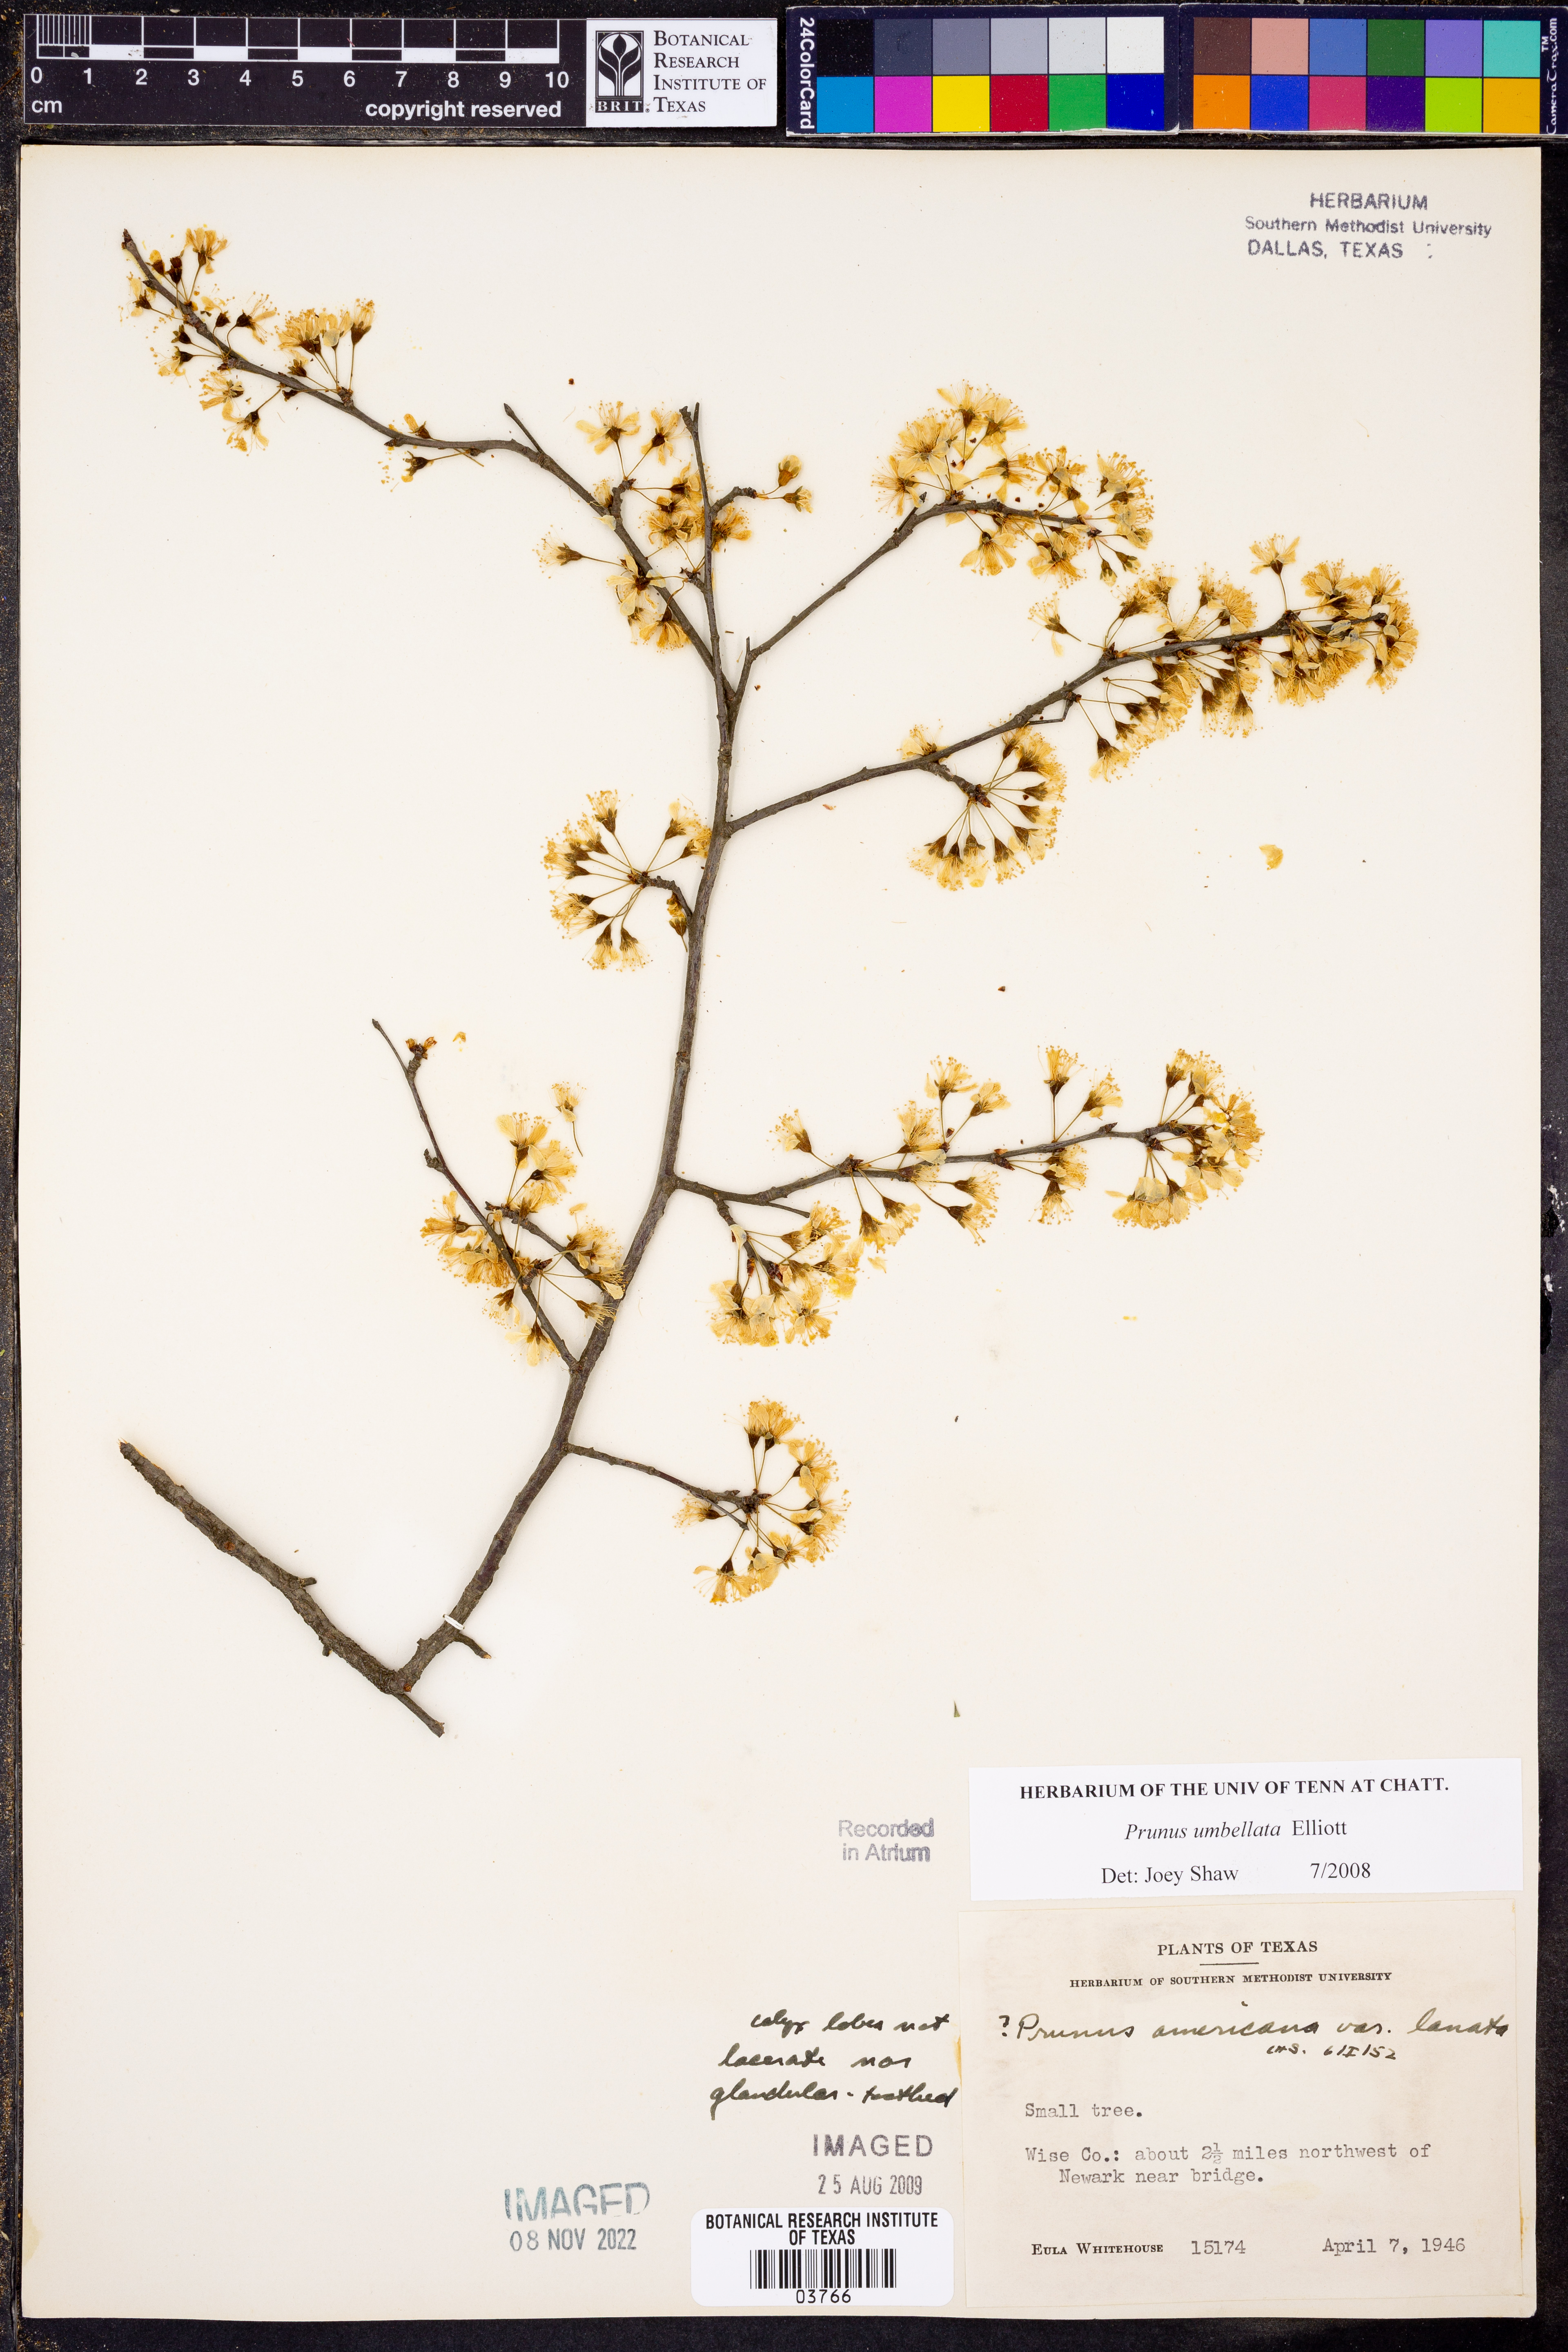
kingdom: Plantae
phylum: Tracheophyta
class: Magnoliopsida
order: Rosales
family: Rosaceae
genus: Prunus
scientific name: Prunus umbellata
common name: Allegheny plum
